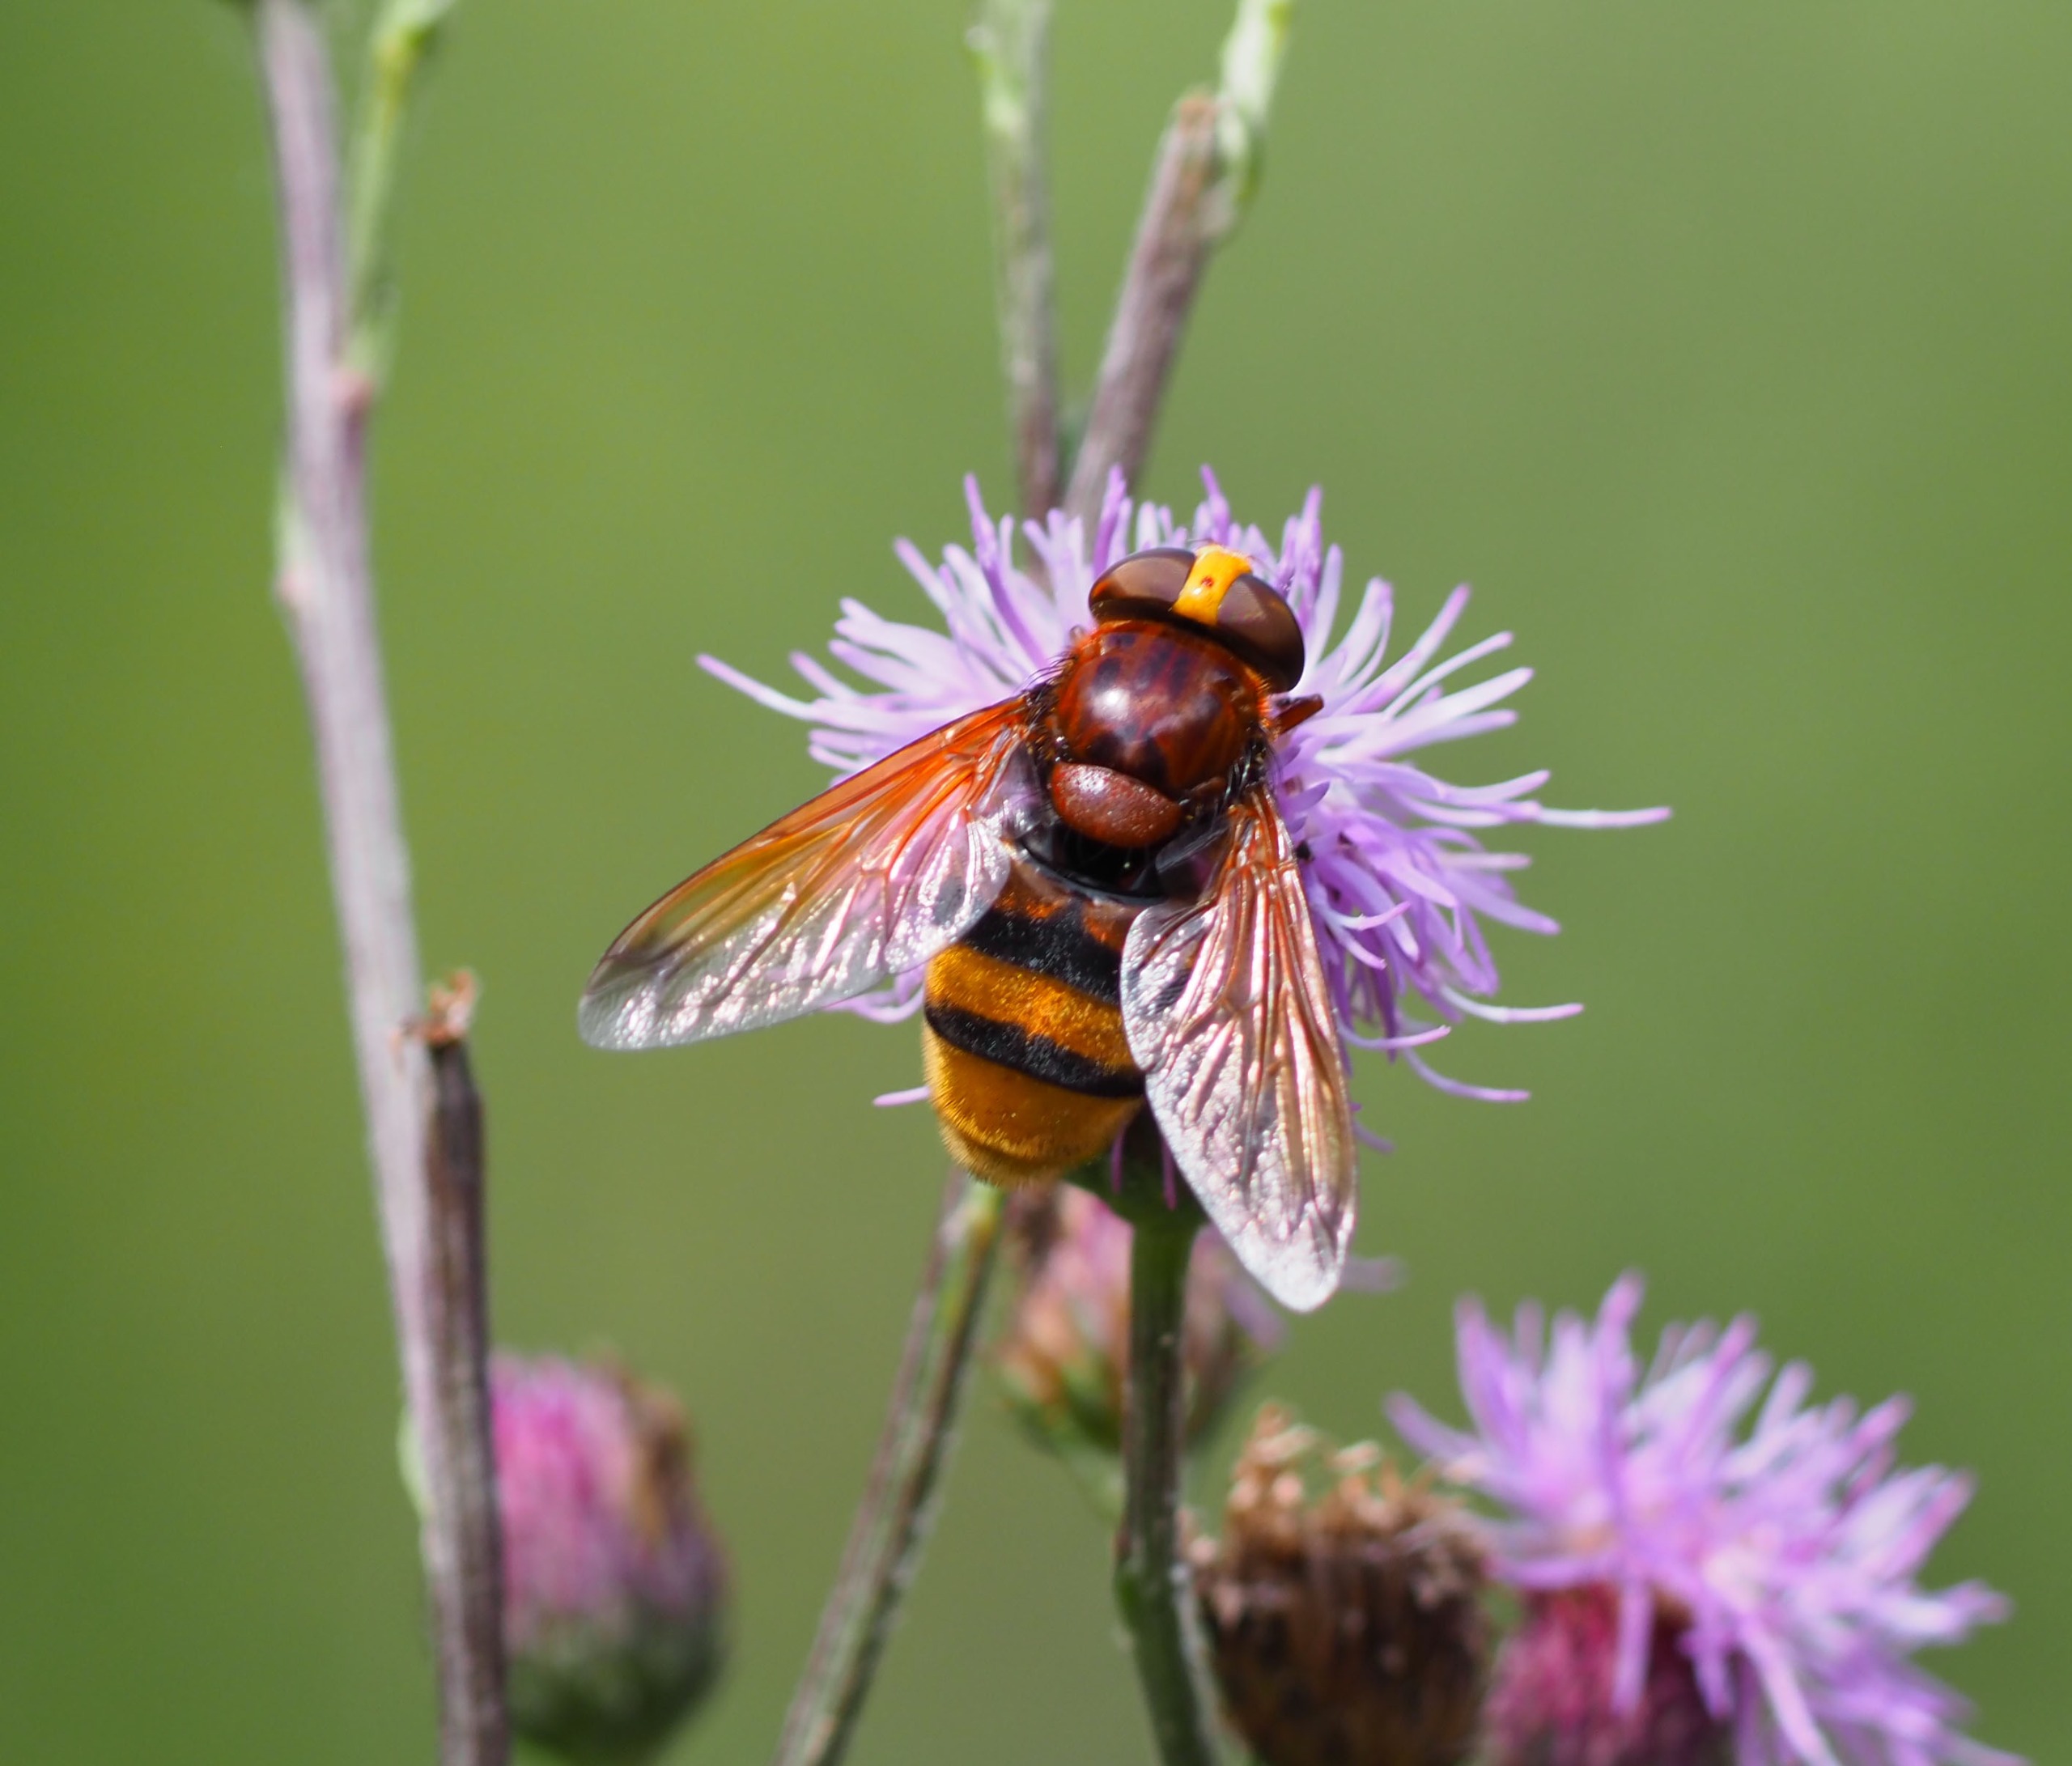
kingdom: Animalia
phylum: Arthropoda
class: Insecta
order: Diptera
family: Syrphidae
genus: Volucella
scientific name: Volucella zonaria
